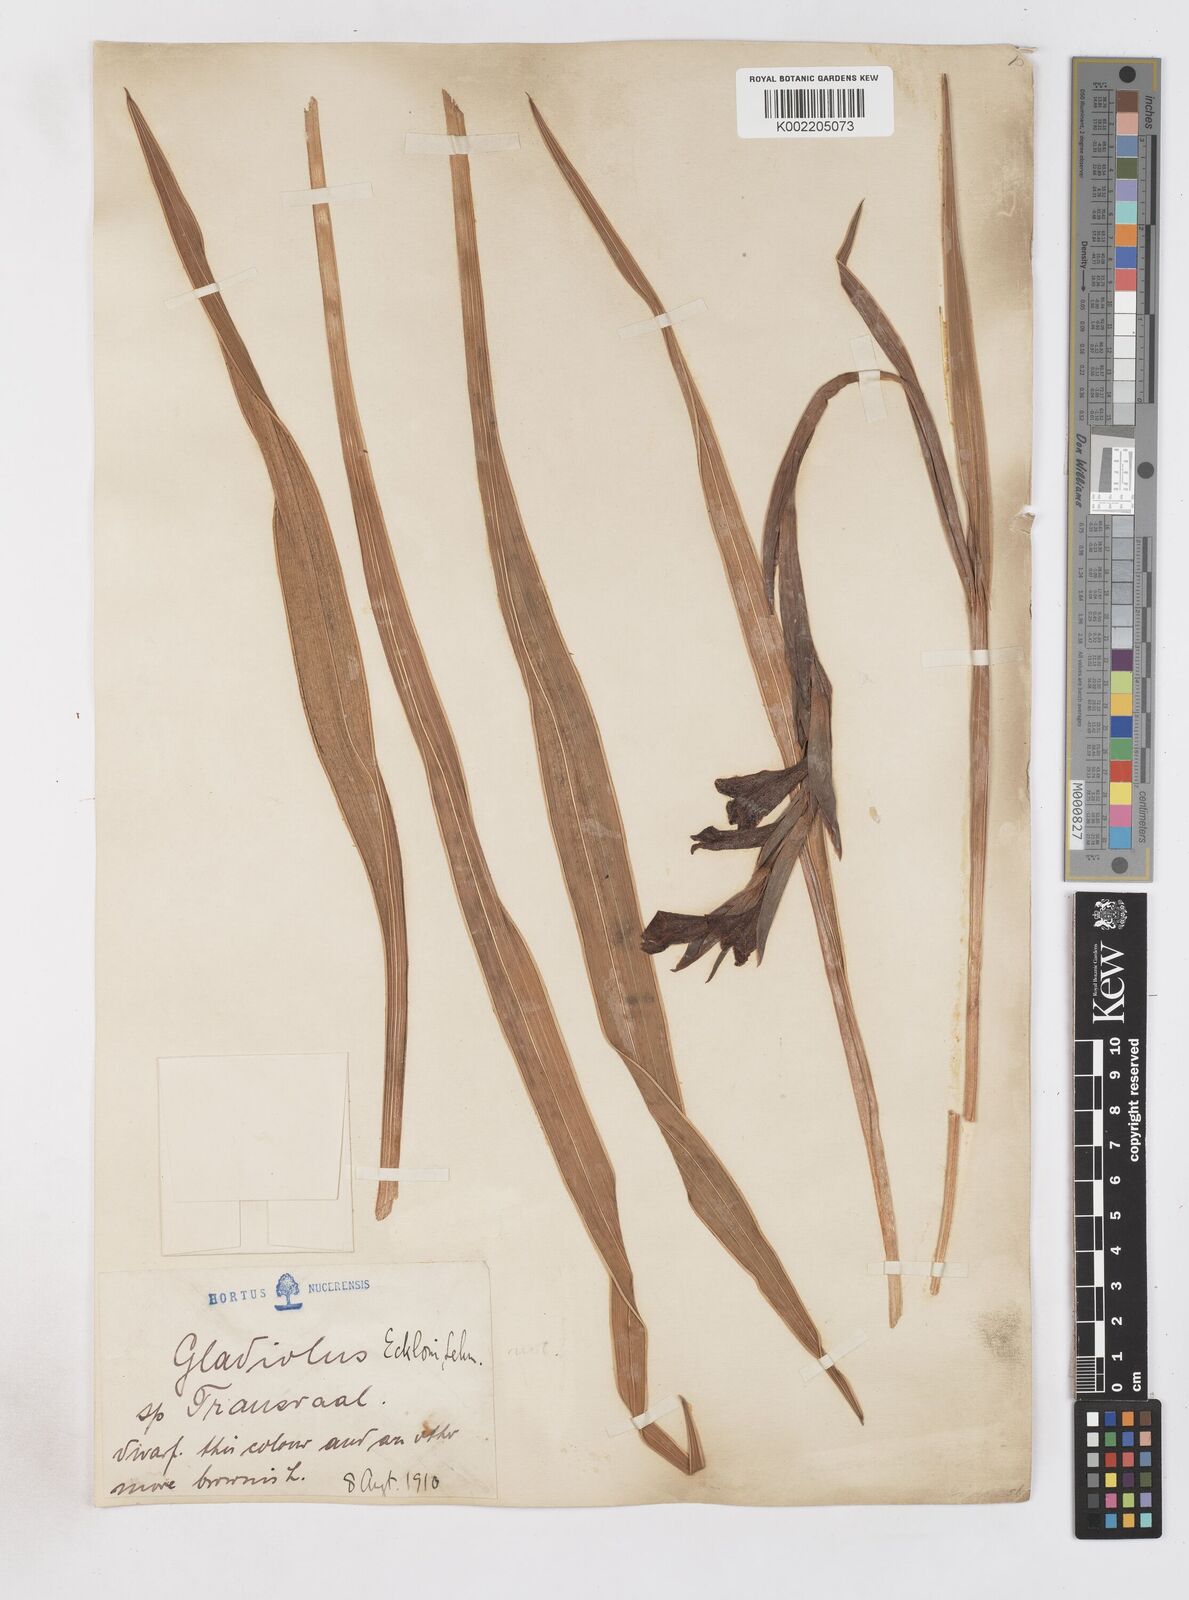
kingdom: Plantae
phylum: Tracheophyta
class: Liliopsida
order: Asparagales
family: Iridaceae
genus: Gladiolus
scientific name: Gladiolus ecklonii
